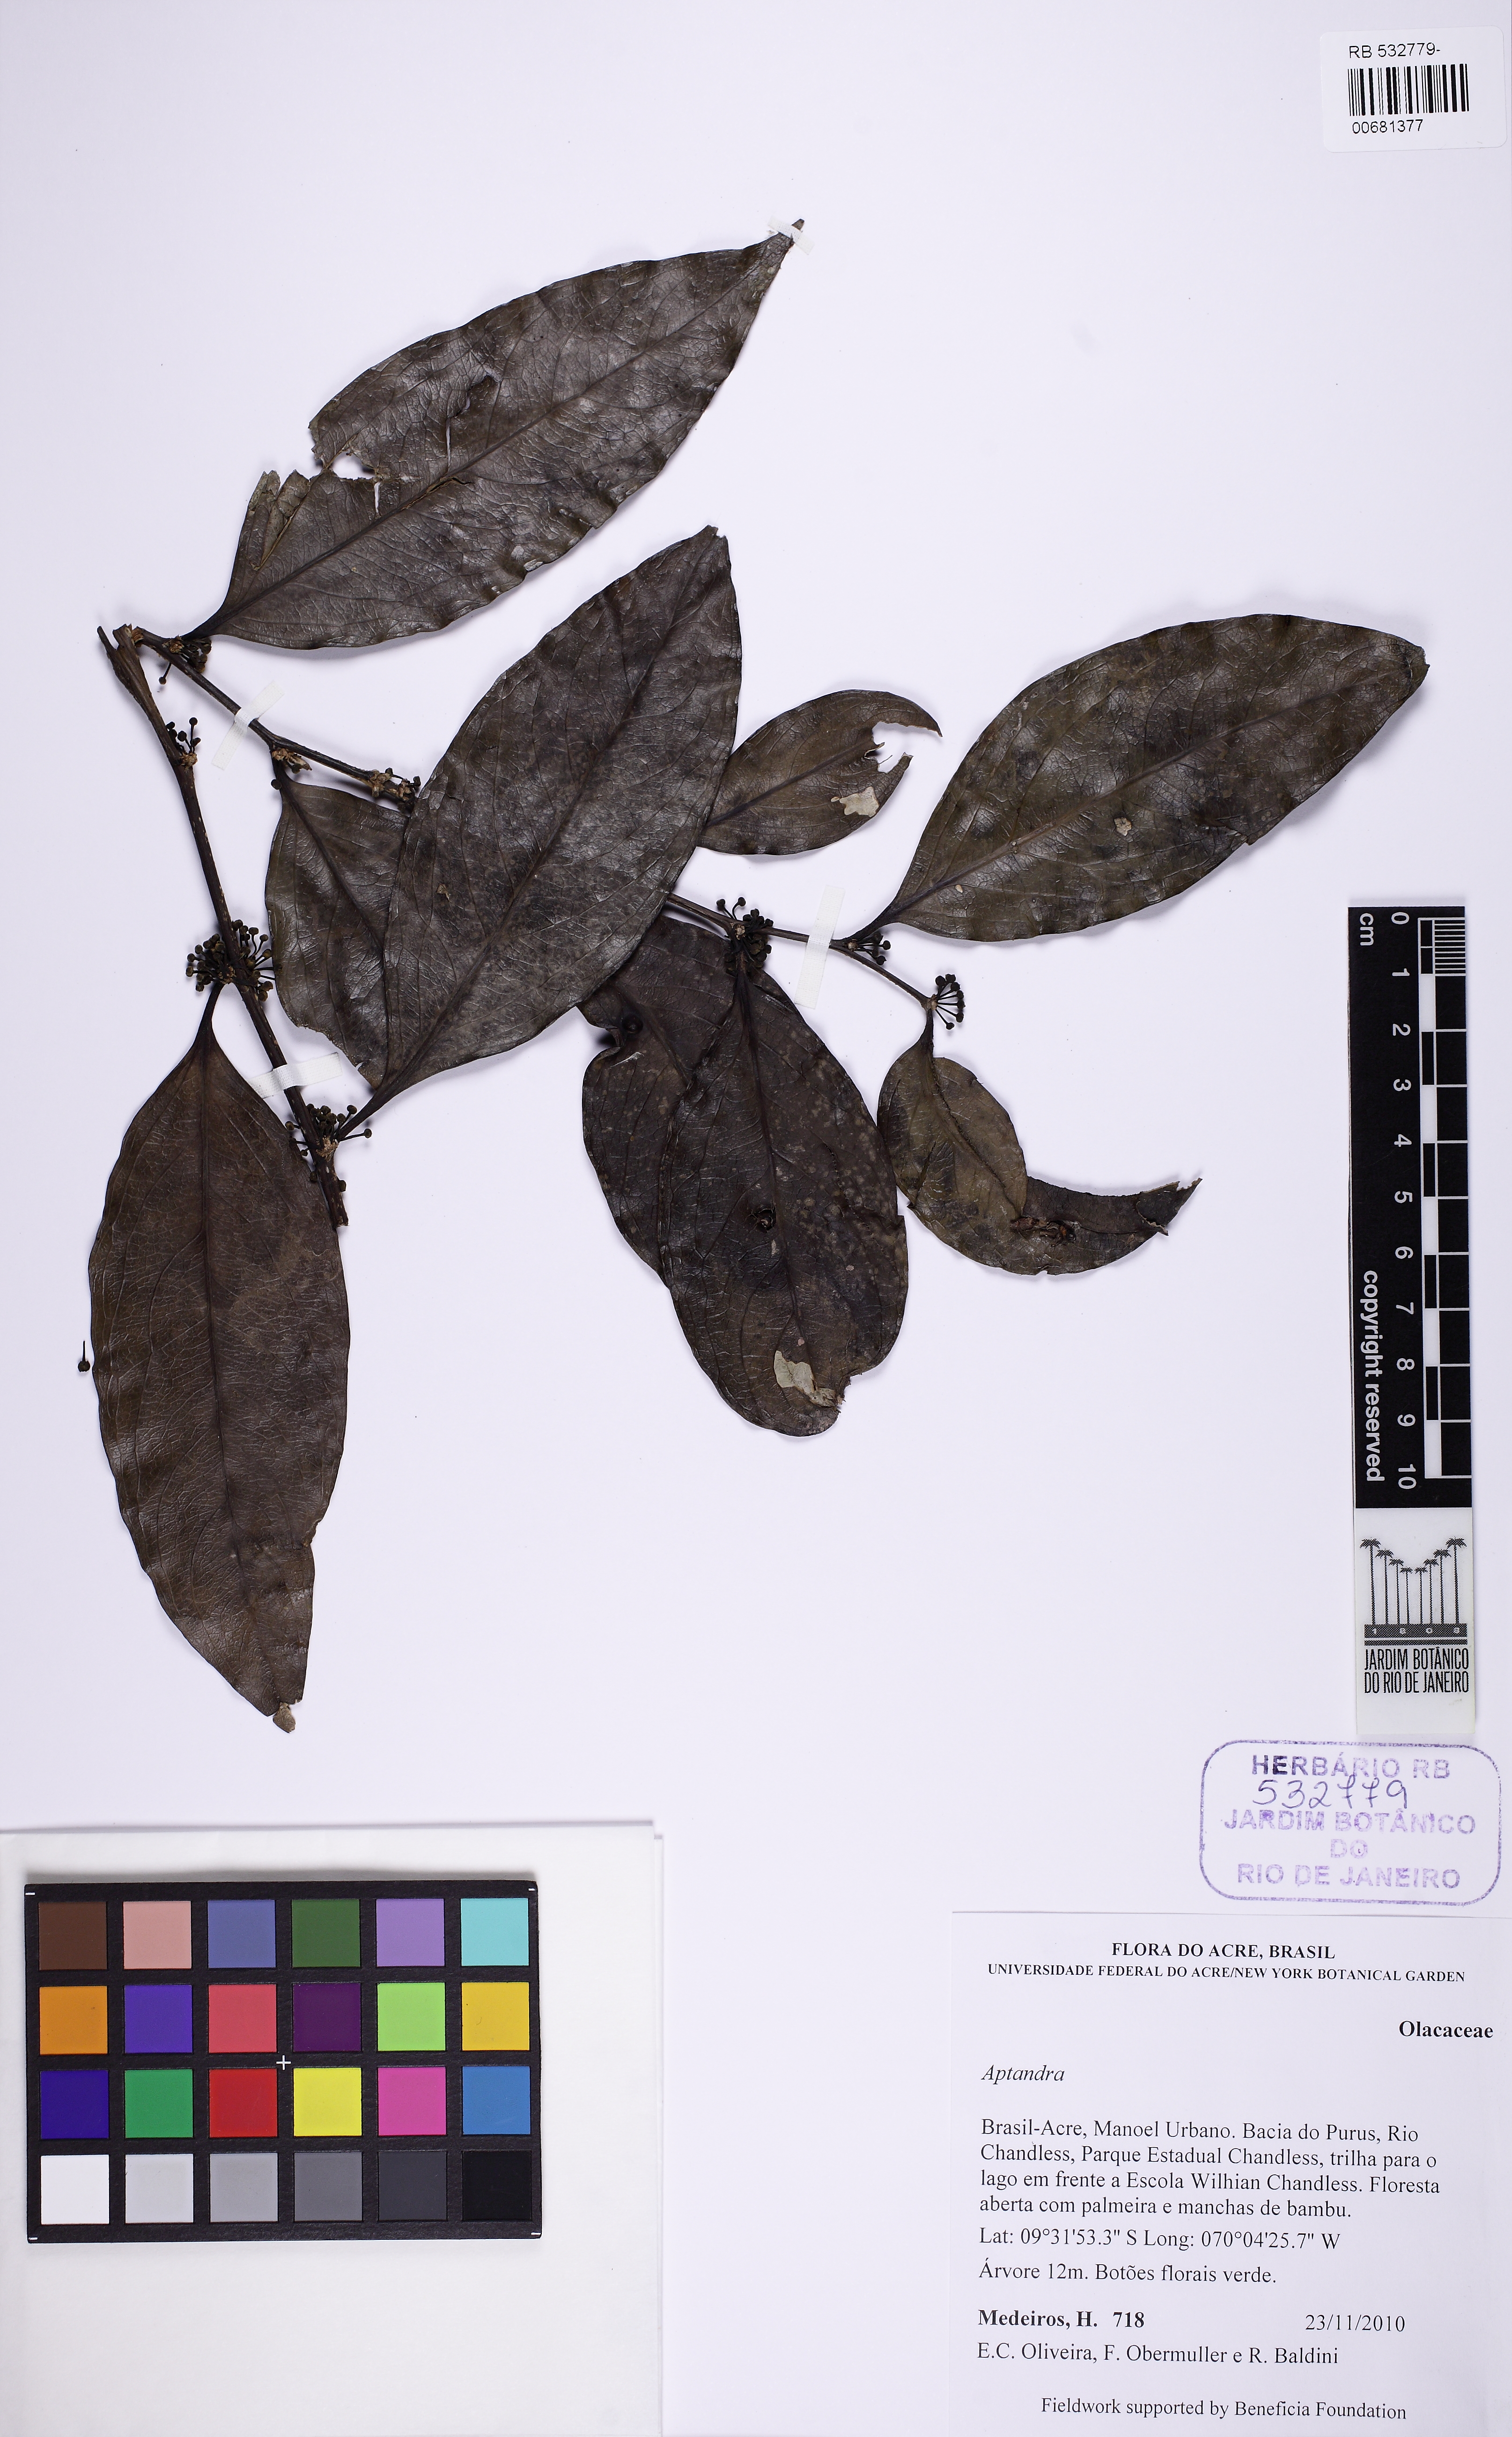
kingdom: Plantae
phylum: Tracheophyta
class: Magnoliopsida
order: Santalales
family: Aptandraceae
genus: Aptandra
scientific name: Aptandra
